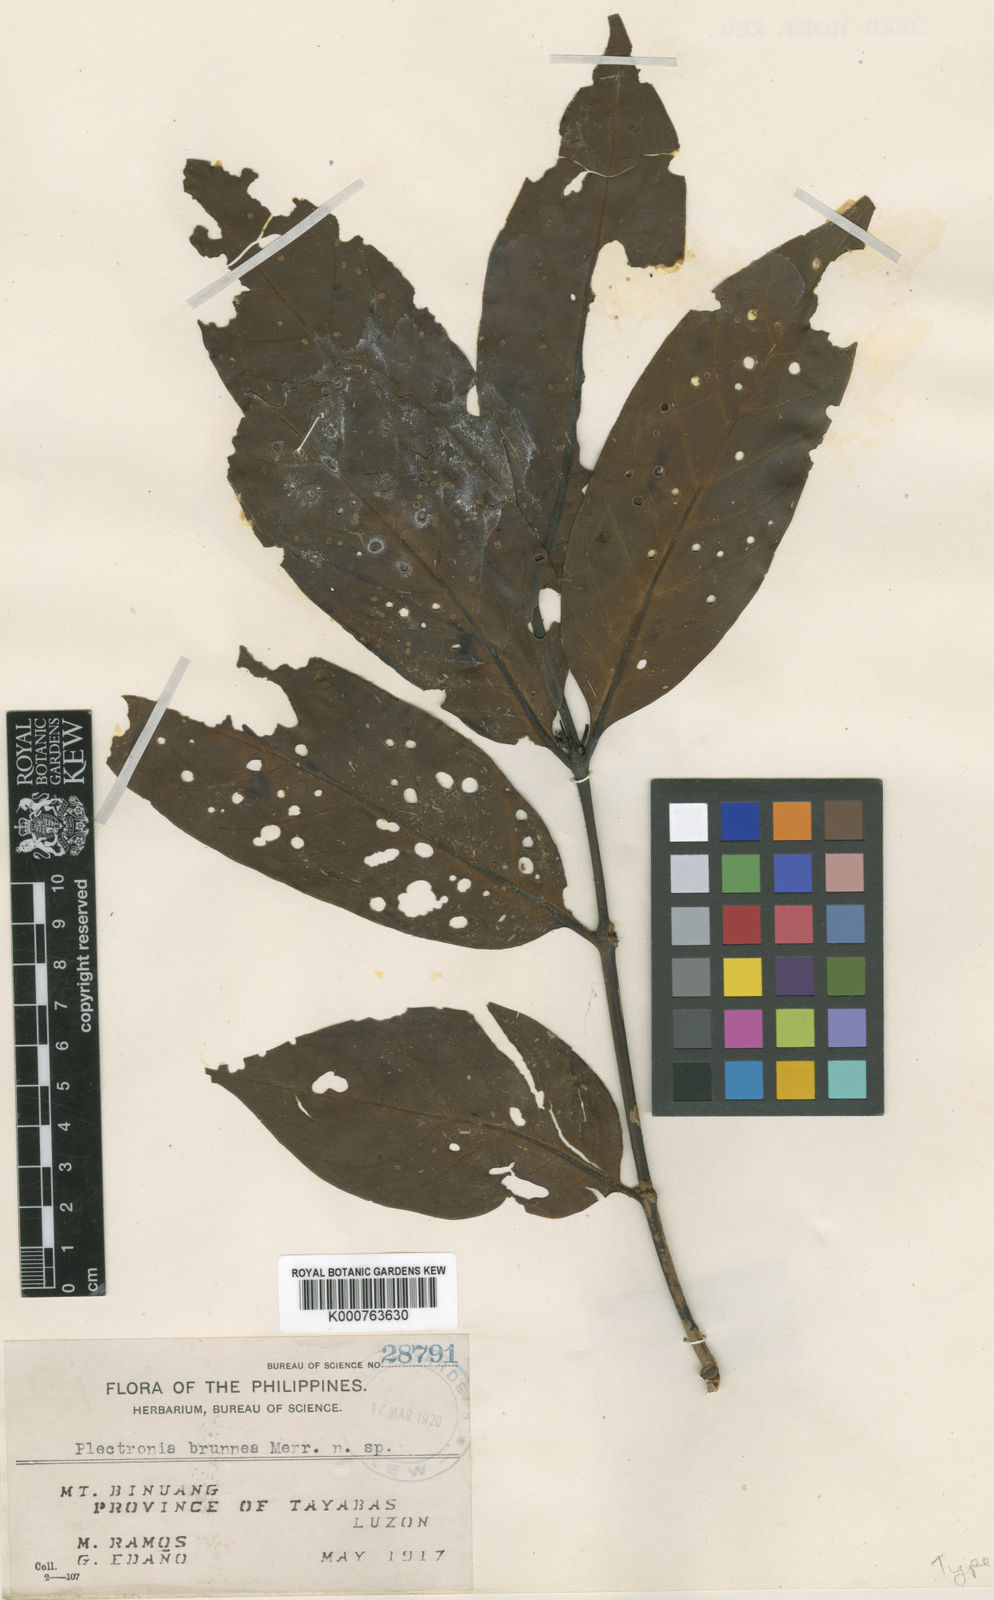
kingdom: Plantae
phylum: Tracheophyta
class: Magnoliopsida
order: Gentianales
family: Rubiaceae
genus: Canthium
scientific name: Canthium brunneum
